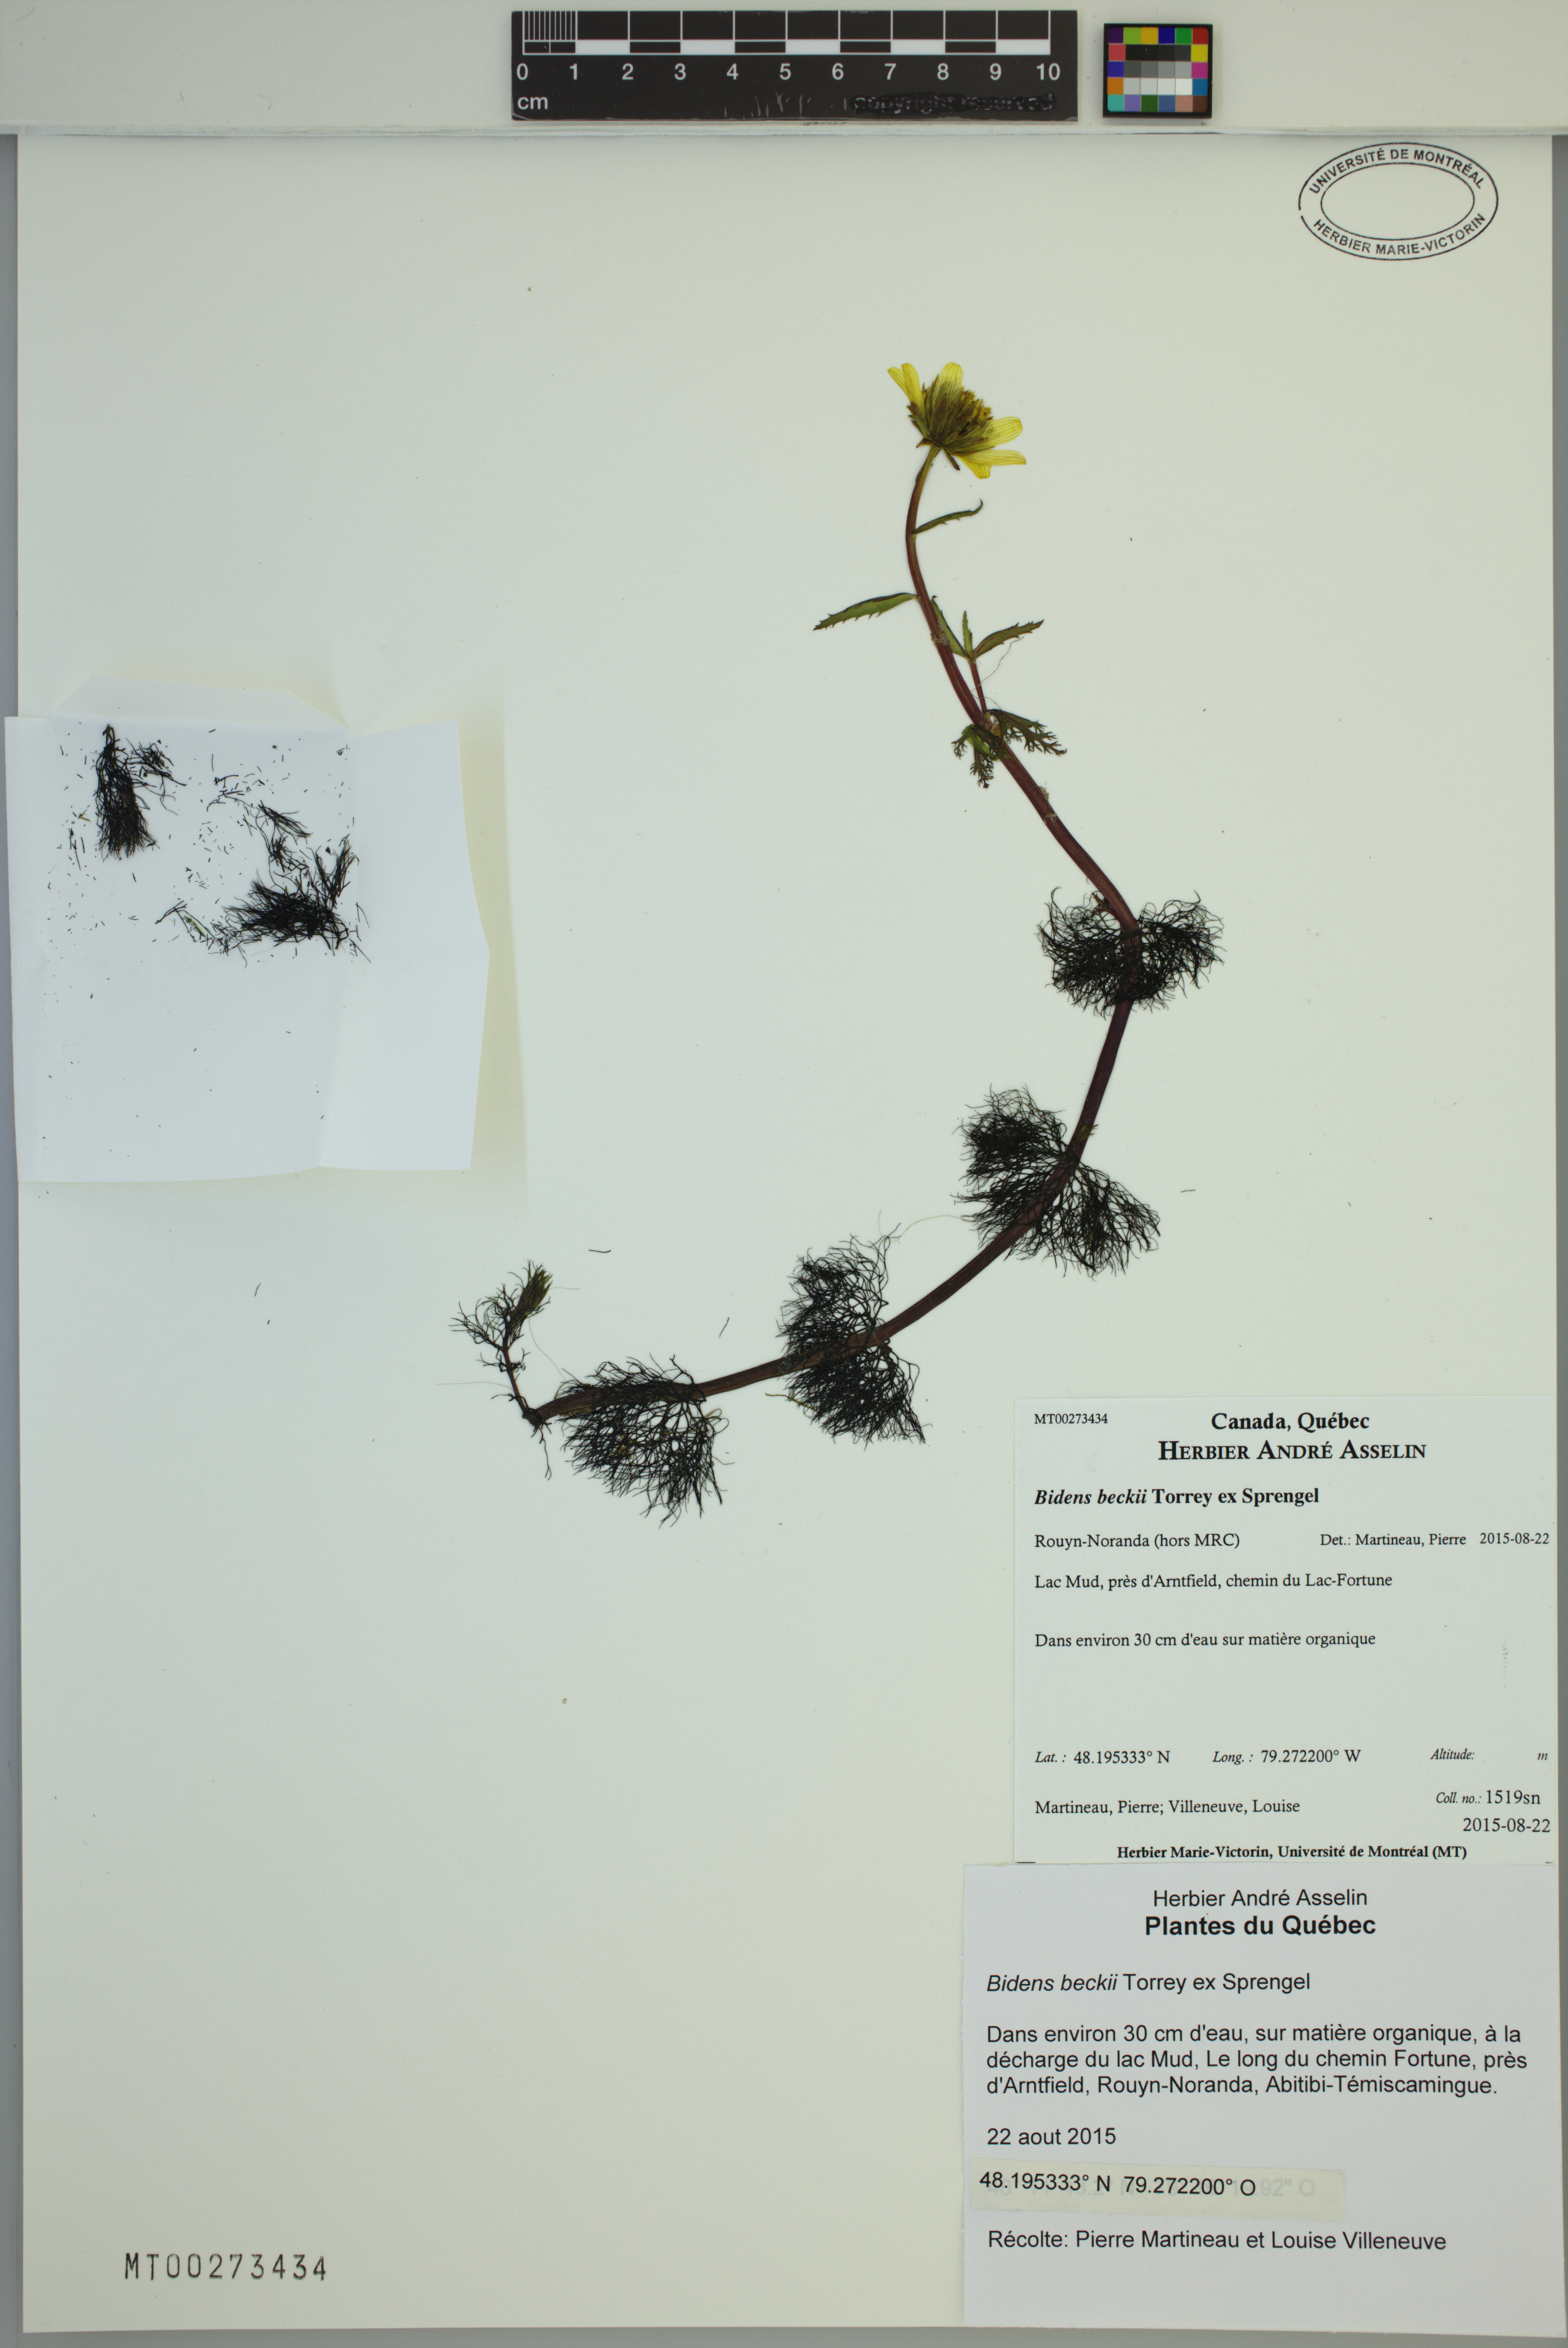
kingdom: Plantae
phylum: Tracheophyta
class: Magnoliopsida
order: Asterales
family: Asteraceae
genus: Bidens
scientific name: Bidens beckii
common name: Beck's beggarticks
